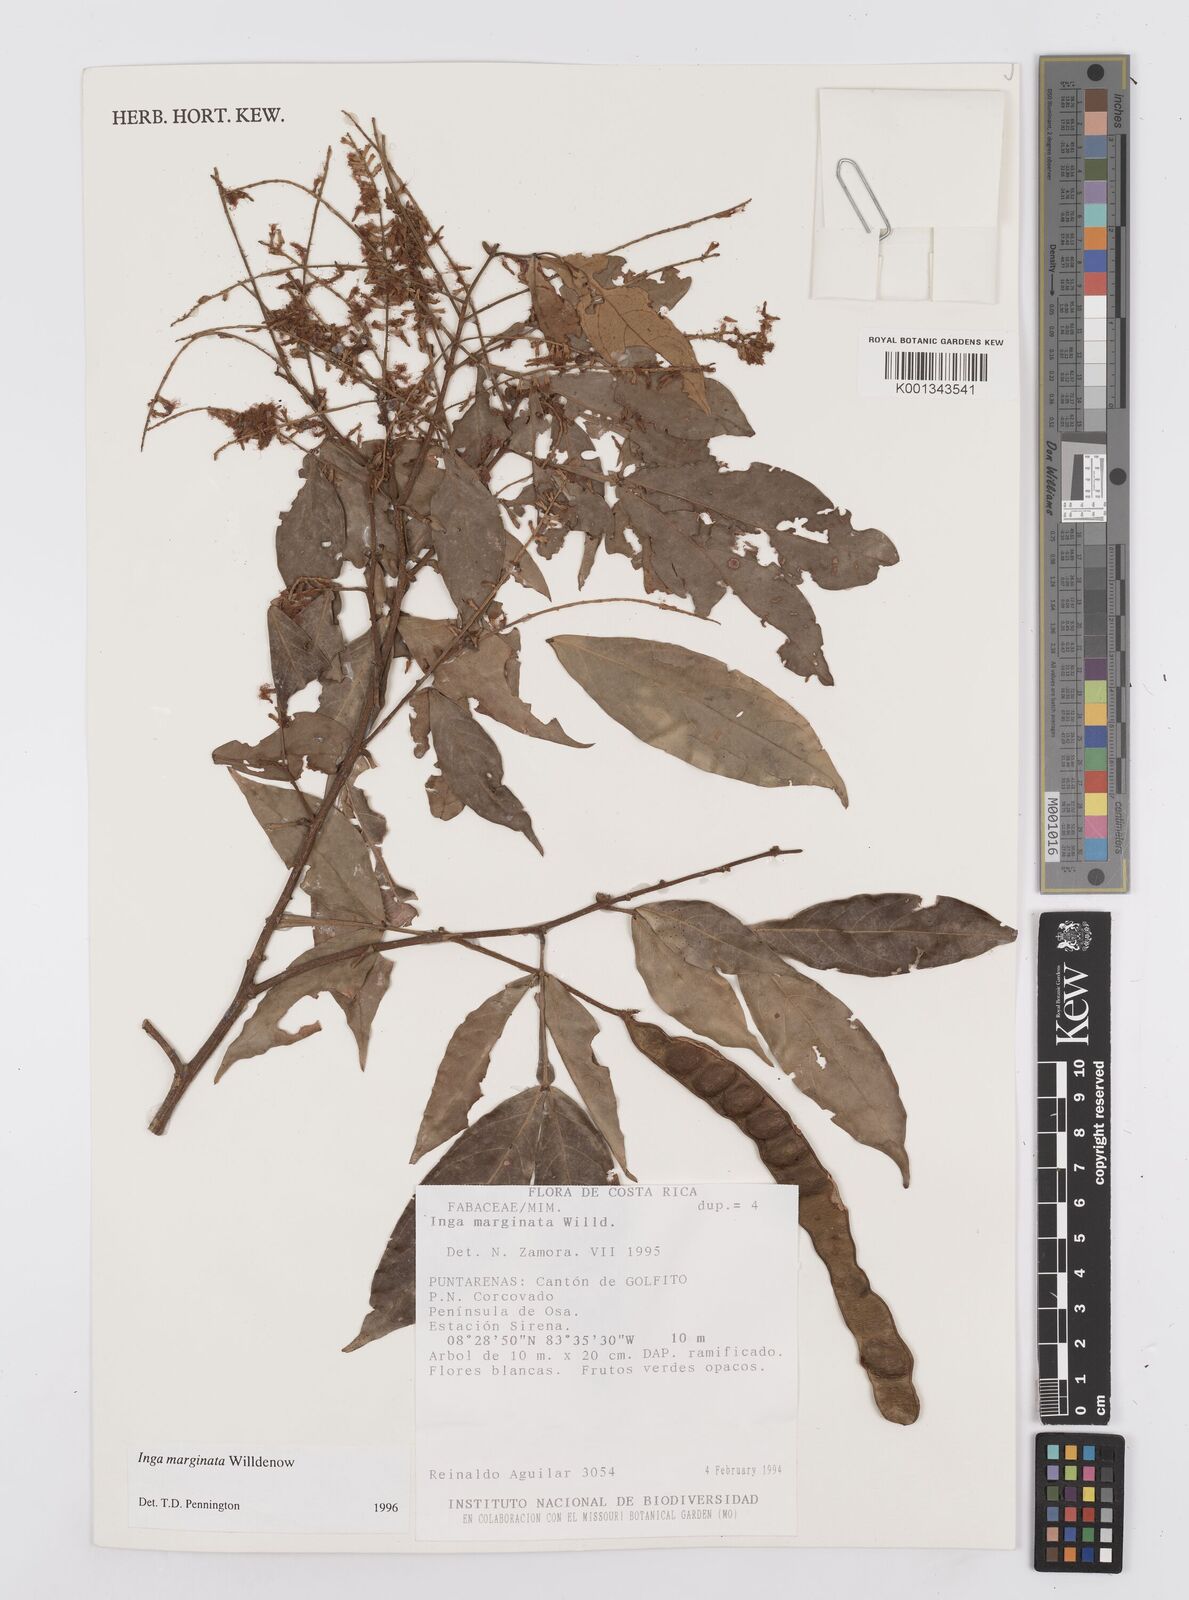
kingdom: Plantae
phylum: Tracheophyta
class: Magnoliopsida
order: Fabales
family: Fabaceae
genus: Inga
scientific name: Inga marginata
